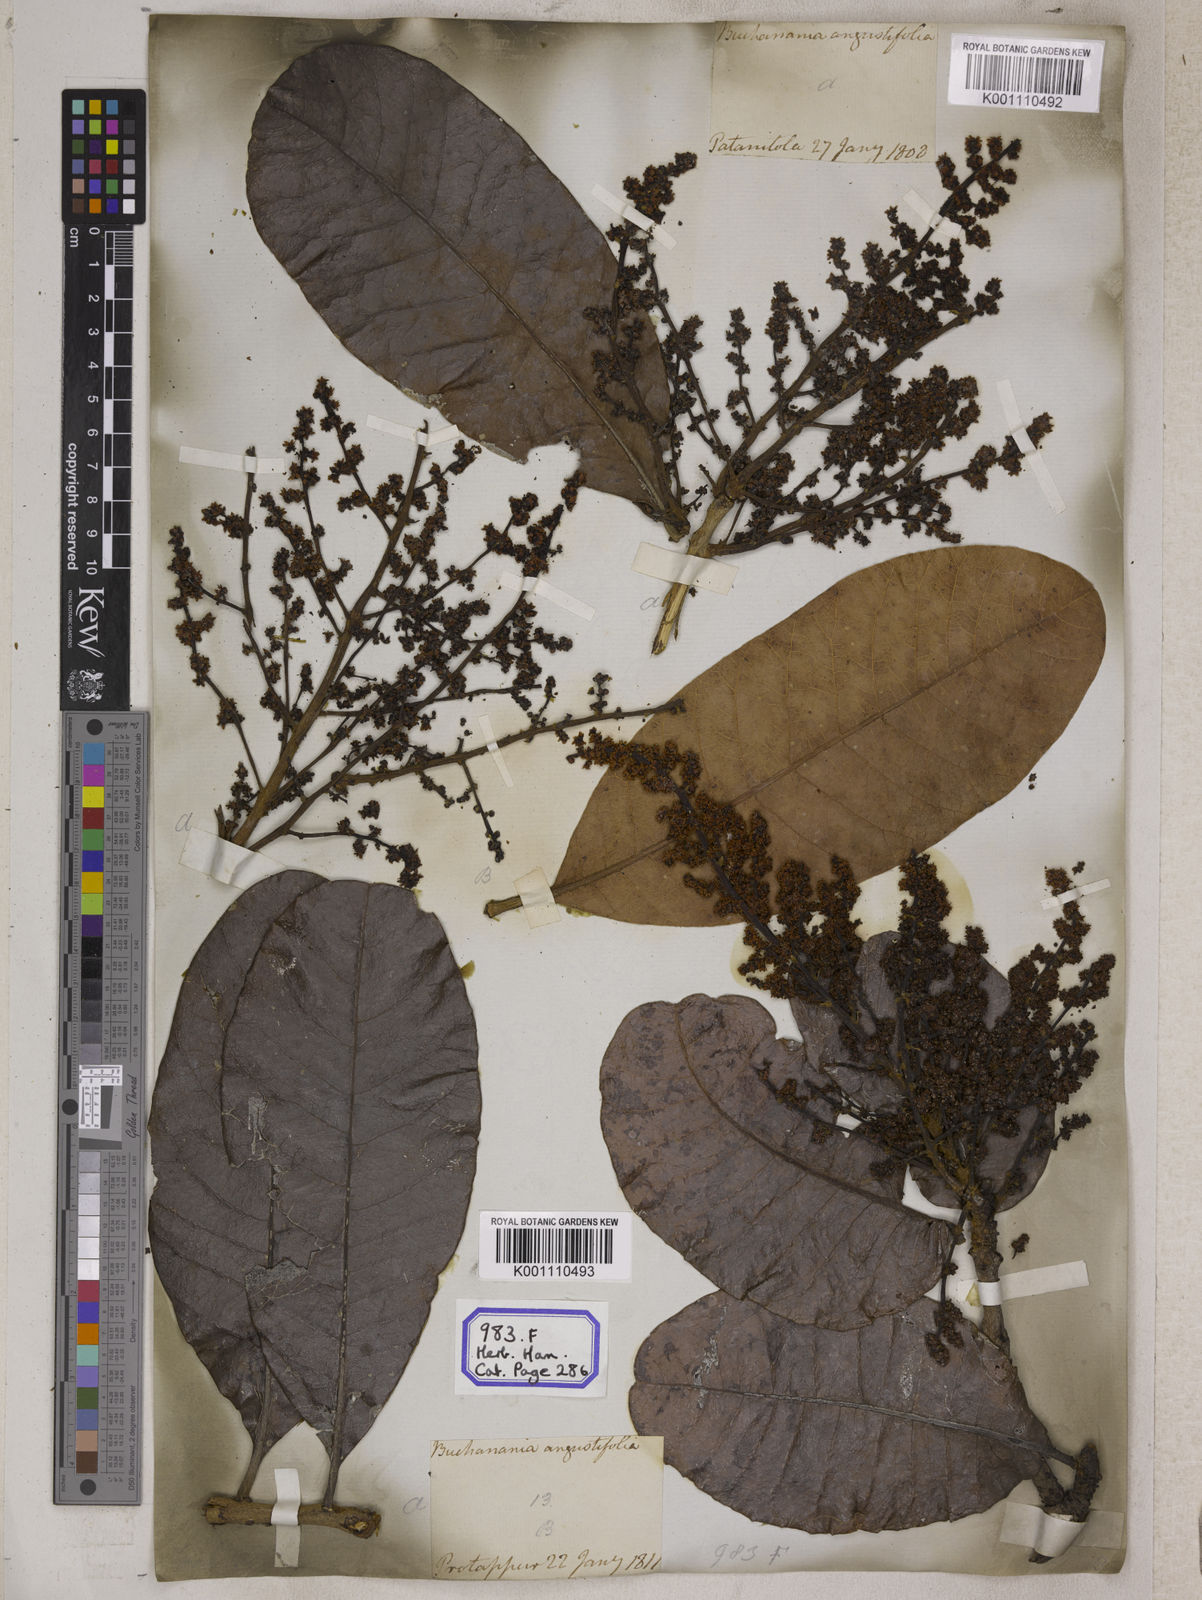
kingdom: Plantae
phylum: Tracheophyta
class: Magnoliopsida
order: Sapindales
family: Anacardiaceae
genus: Buchanania
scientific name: Buchanania cochinchinensis
